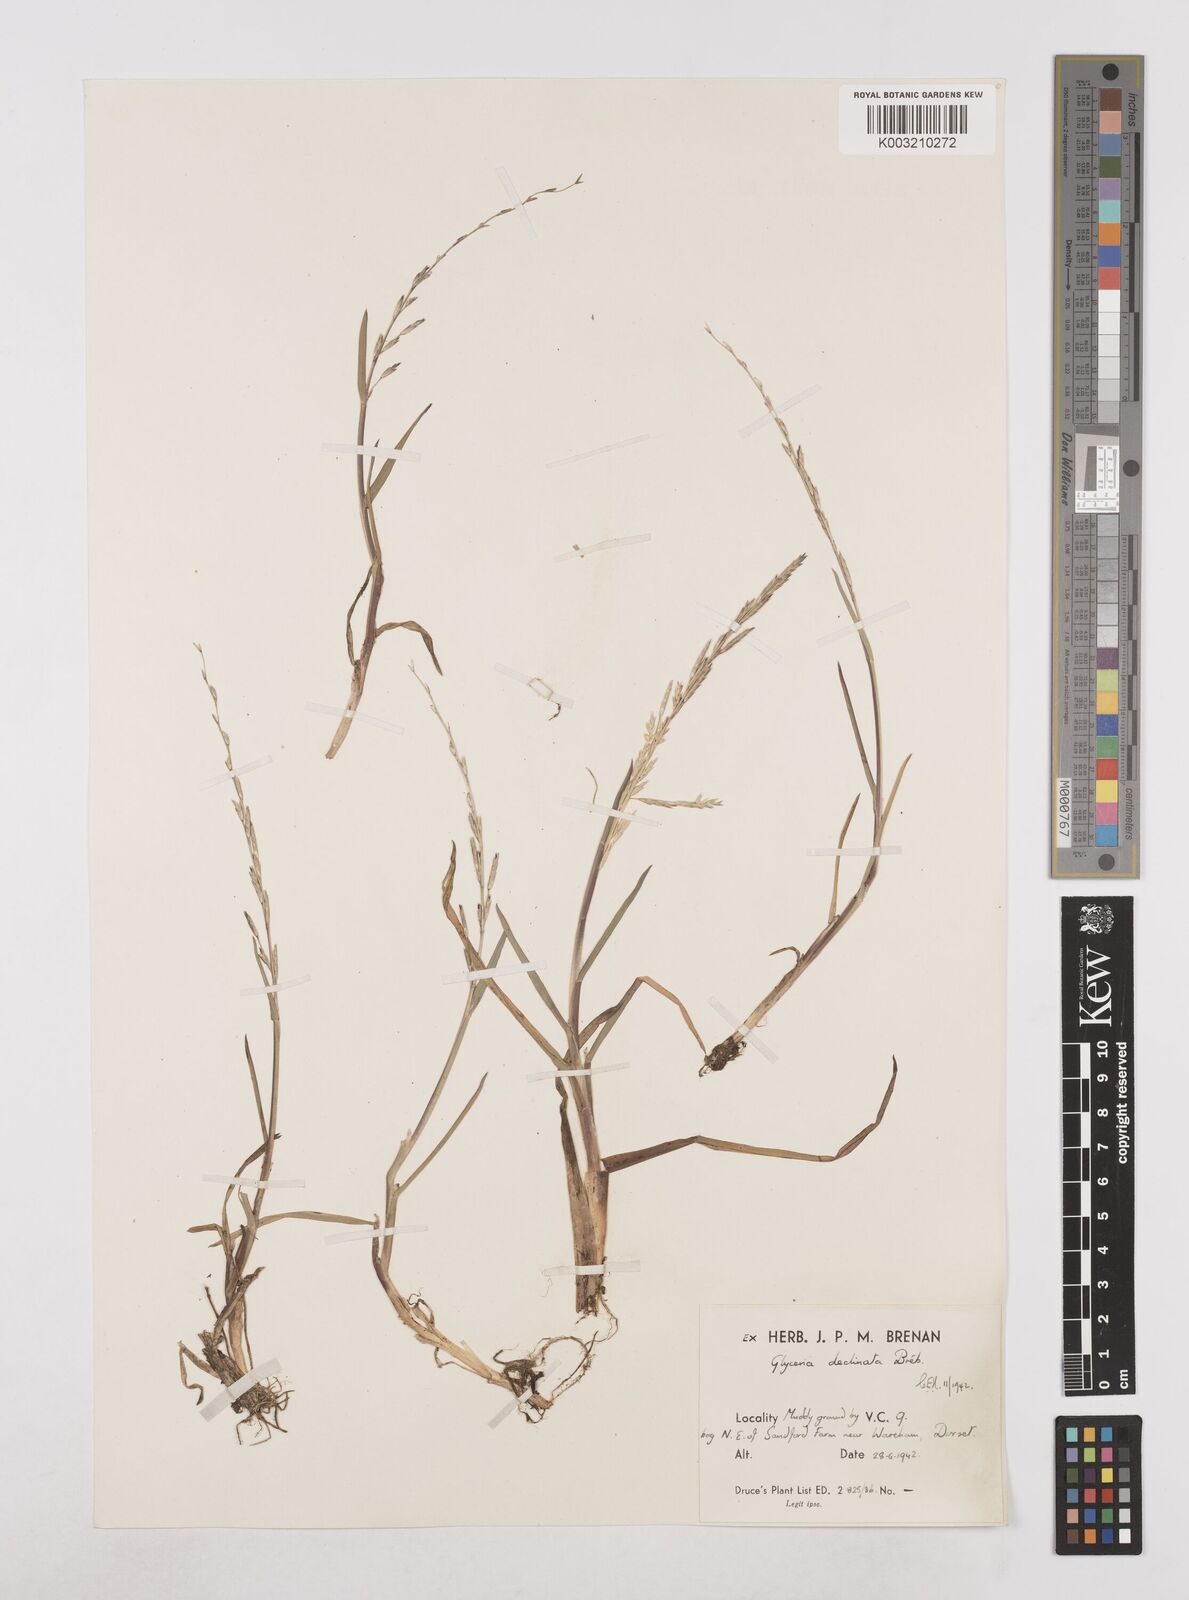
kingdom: Plantae
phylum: Tracheophyta
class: Liliopsida
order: Poales
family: Poaceae
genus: Glyceria
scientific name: Glyceria declinata
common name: Small sweet-grass
